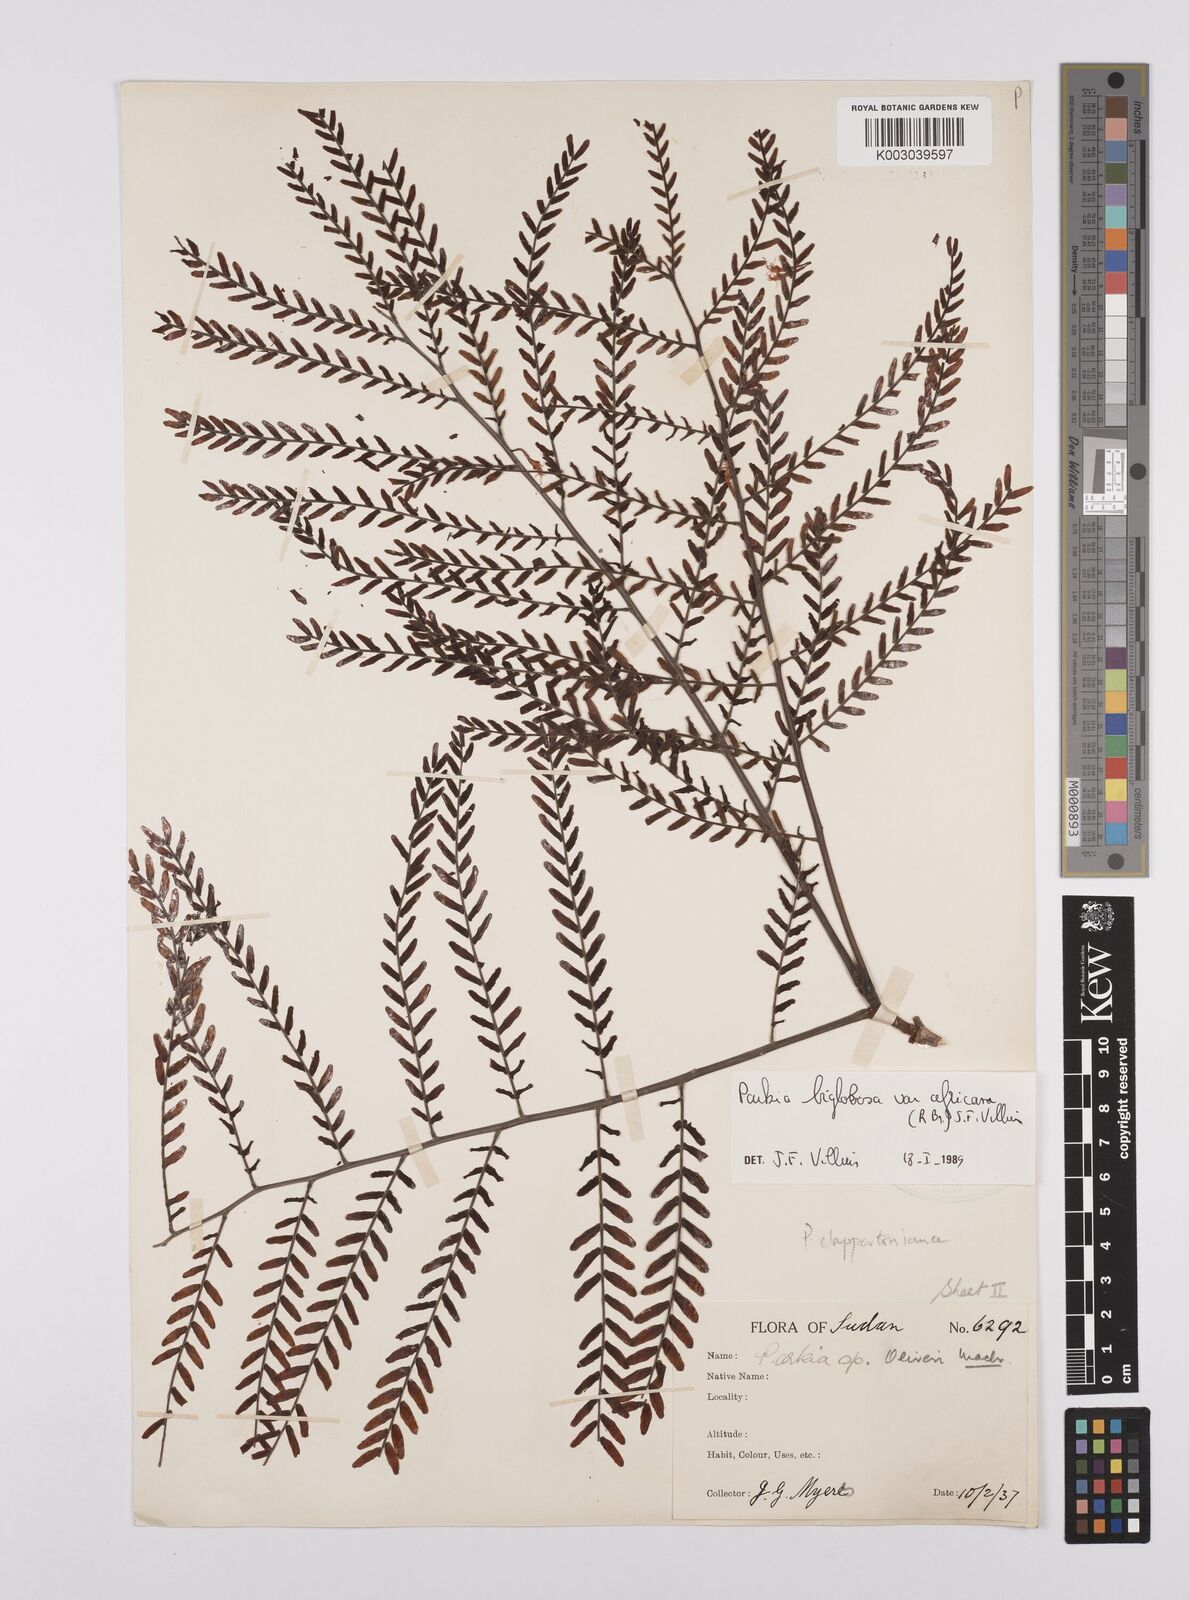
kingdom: Plantae
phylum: Tracheophyta
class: Magnoliopsida
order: Fabales
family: Fabaceae
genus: Parkia
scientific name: Parkia biglobosa
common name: African locust-bean
